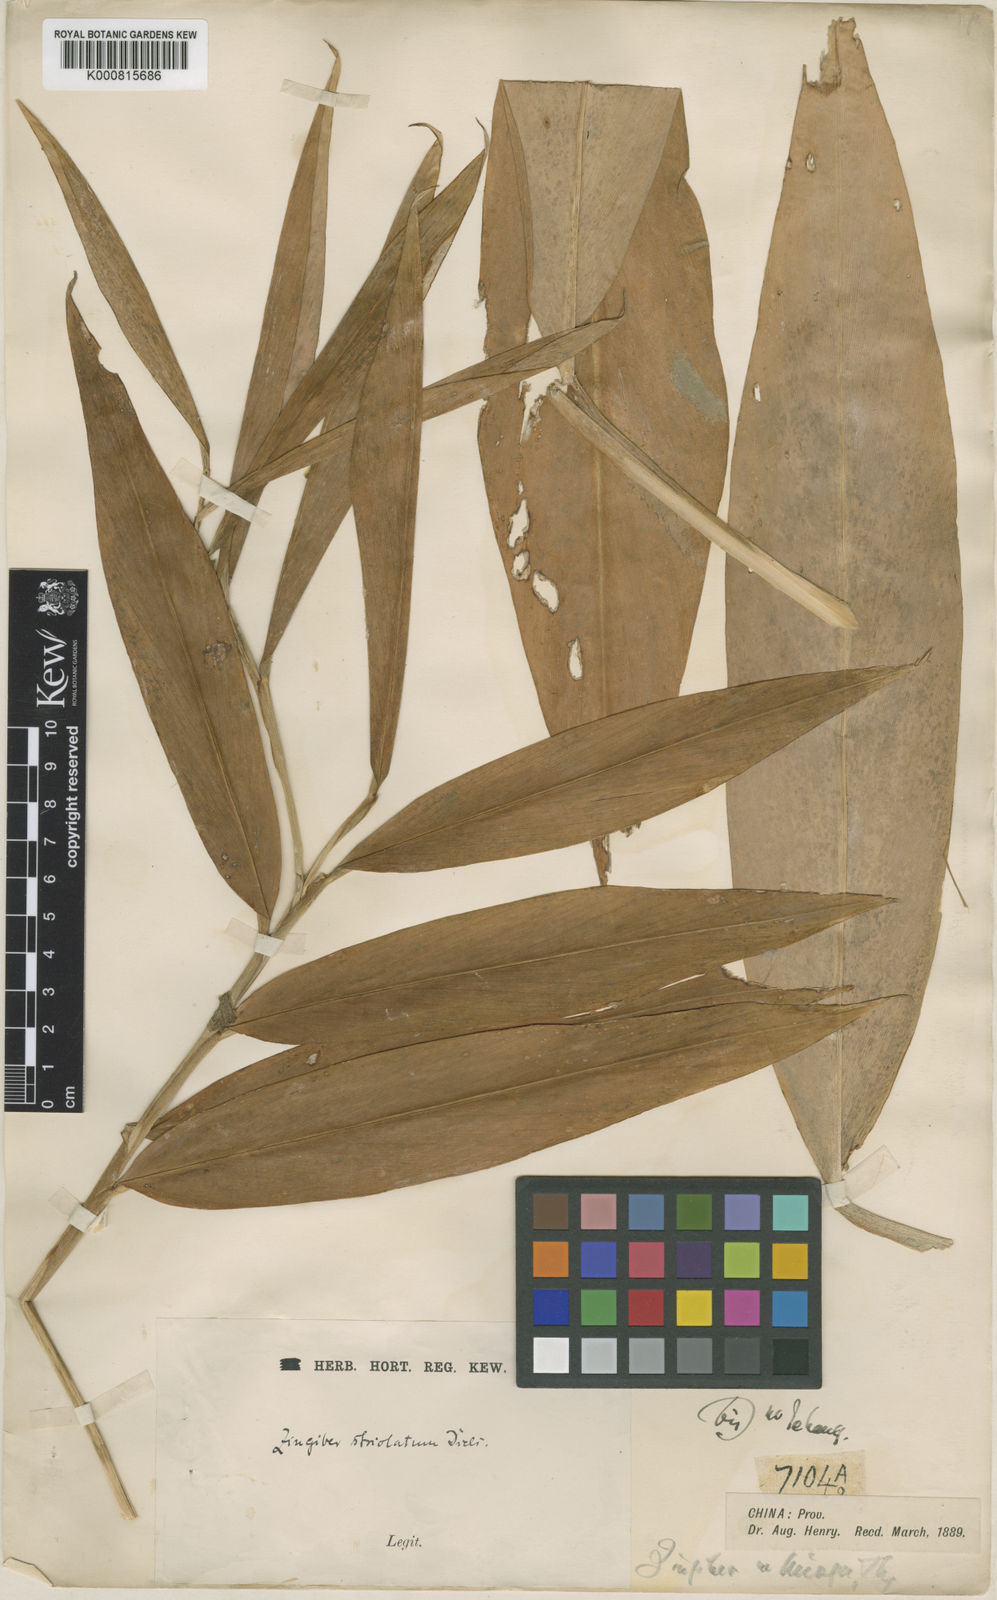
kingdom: Plantae
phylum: Tracheophyta
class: Liliopsida
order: Zingiberales
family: Zingiberaceae
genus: Zingiber
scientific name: Zingiber striolatum
